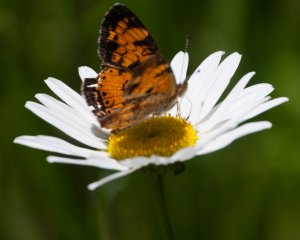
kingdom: Animalia
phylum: Arthropoda
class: Insecta
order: Lepidoptera
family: Nymphalidae
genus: Phyciodes
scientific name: Phyciodes tharos
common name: Pearl Crescent
